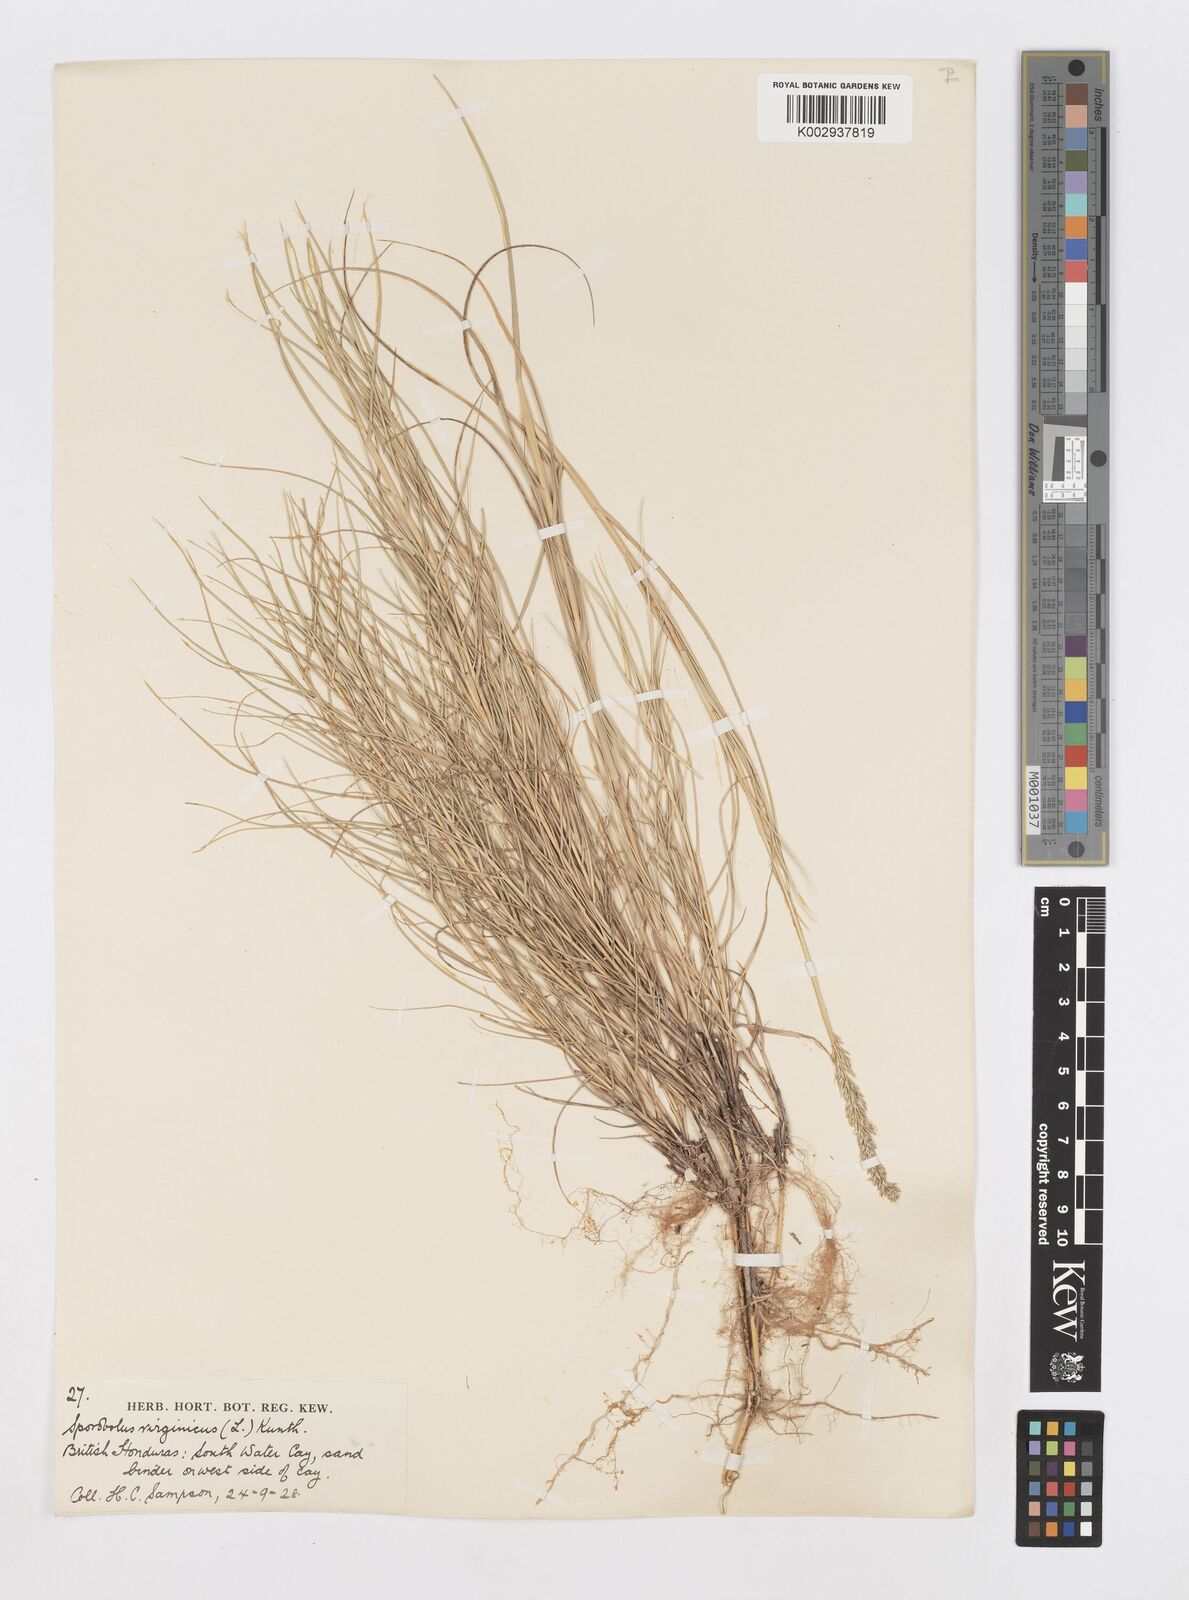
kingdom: Plantae
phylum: Tracheophyta
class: Liliopsida
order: Poales
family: Poaceae
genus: Sporobolus
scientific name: Sporobolus virginicus
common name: Beach dropseed
